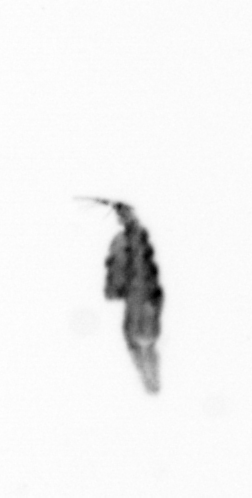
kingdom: Animalia
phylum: Annelida
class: Polychaeta
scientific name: Polychaeta
